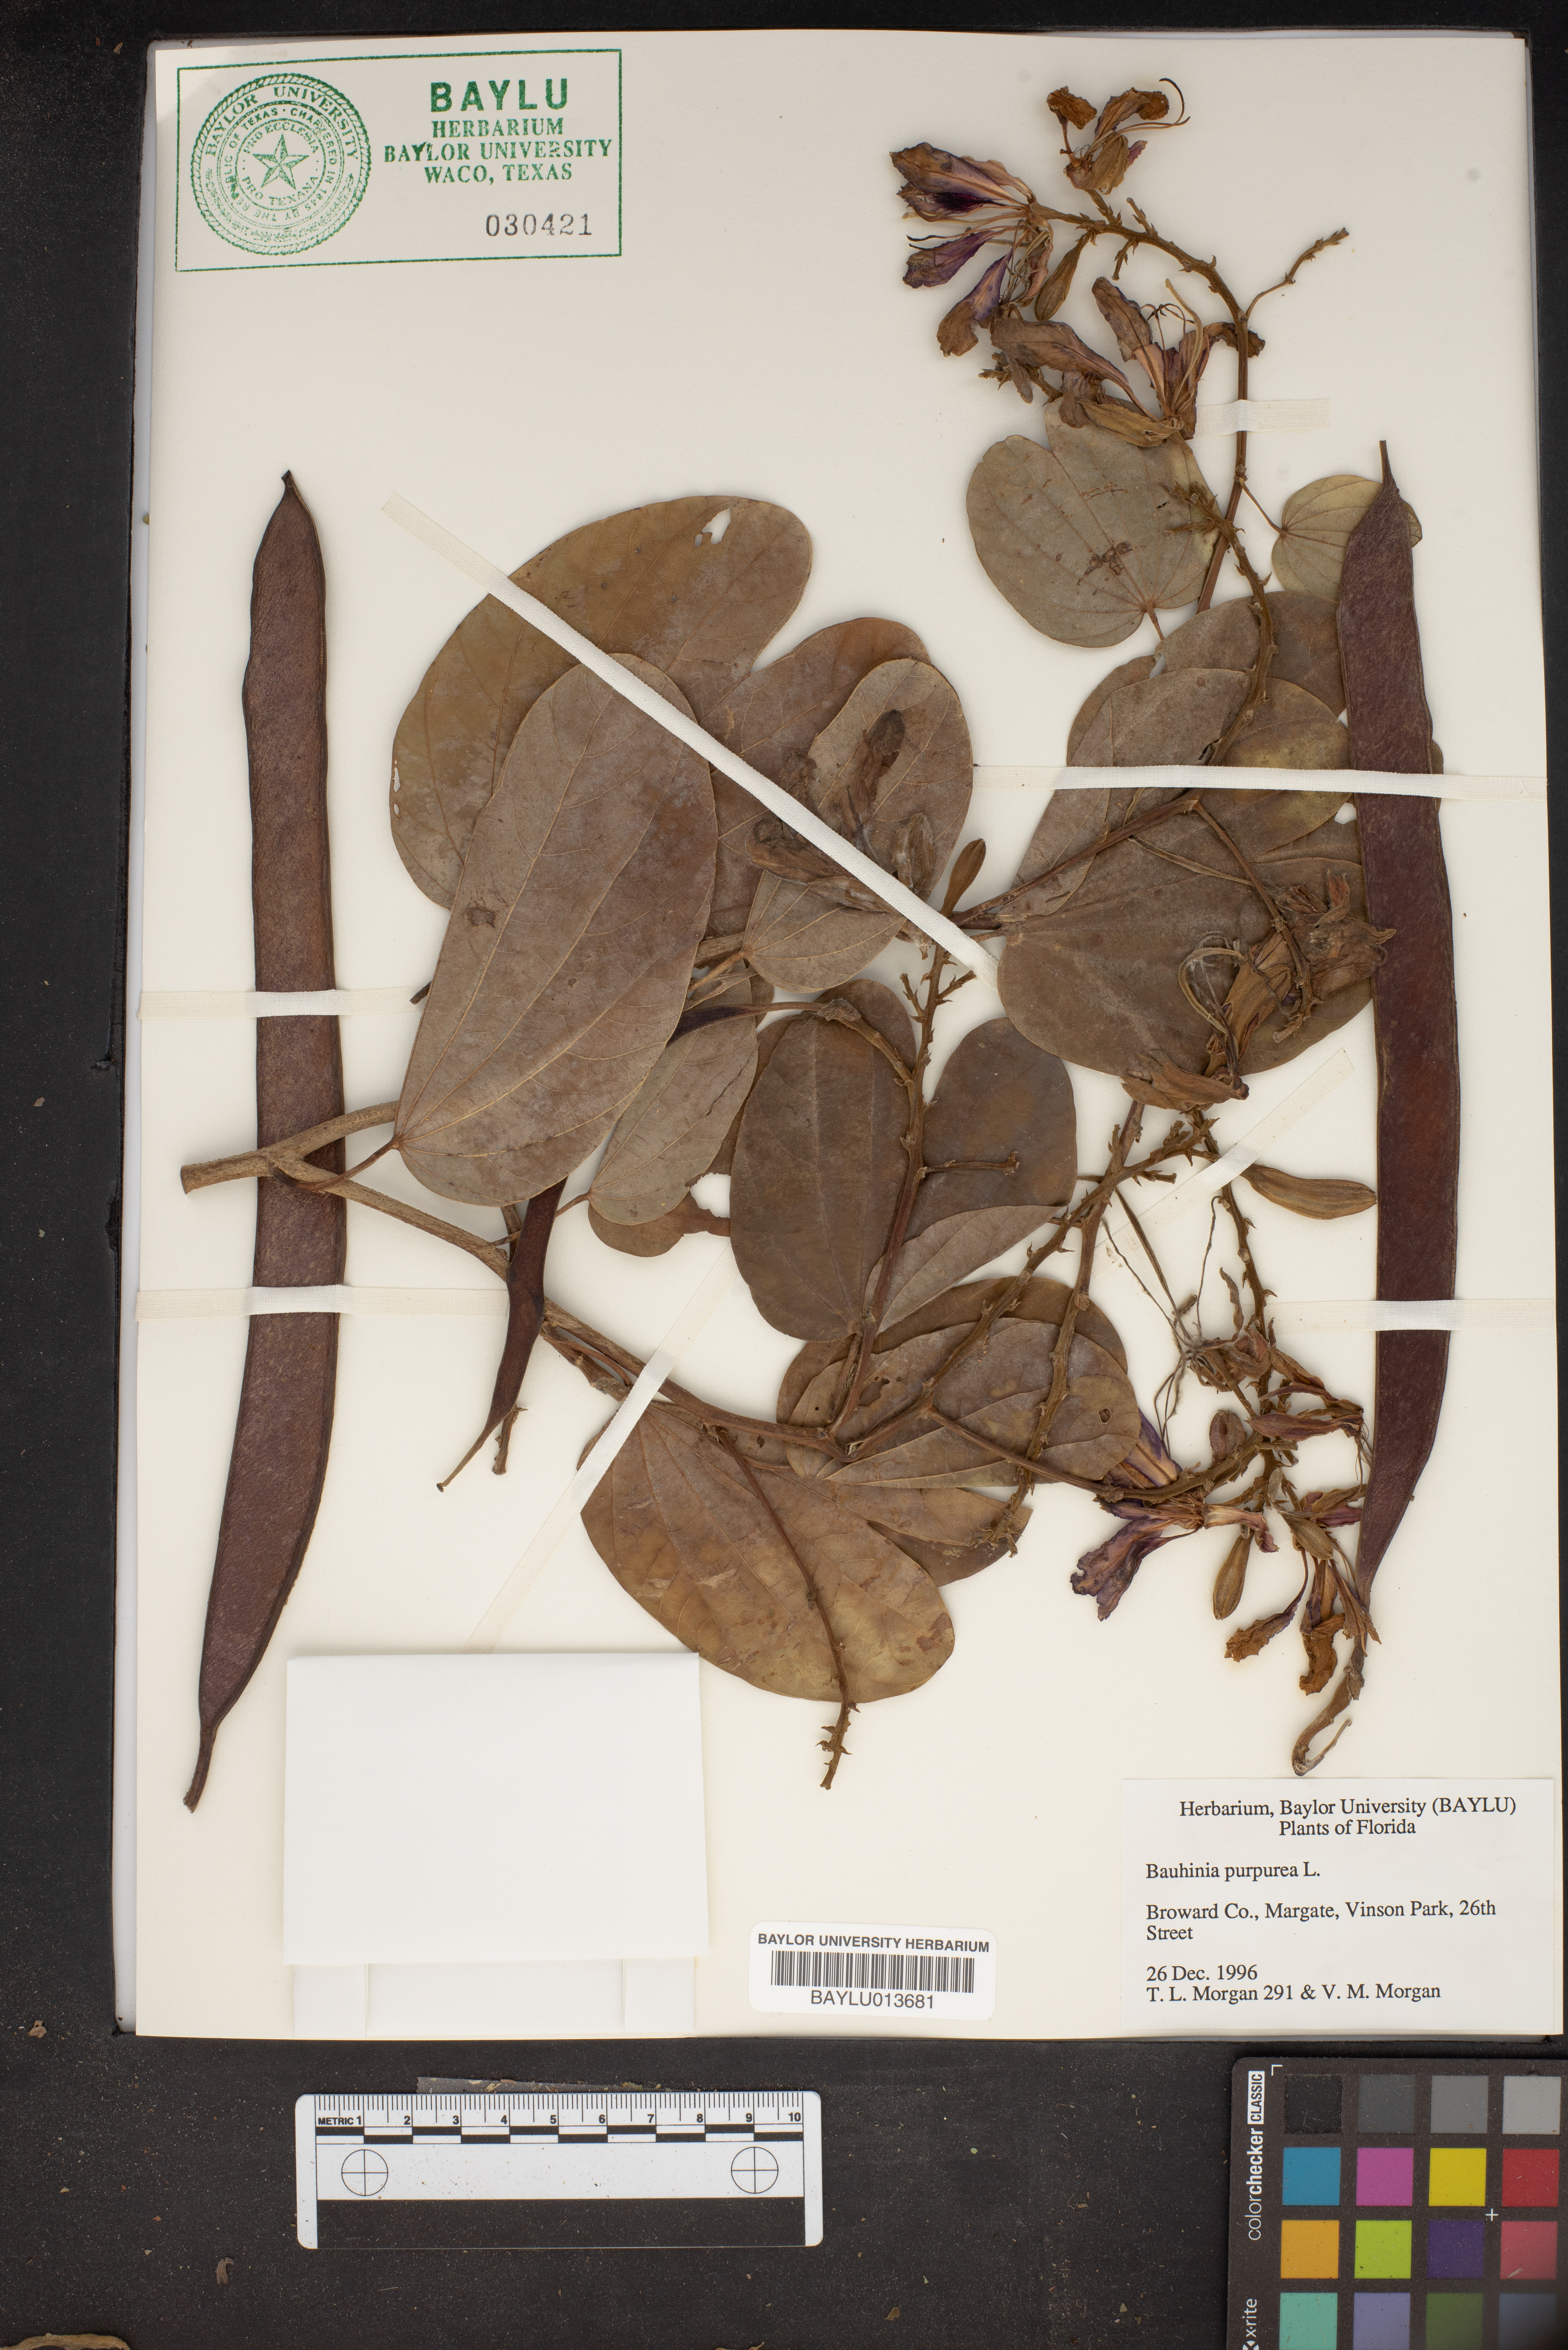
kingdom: Plantae
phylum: Tracheophyta
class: Magnoliopsida
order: Fabales
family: Fabaceae
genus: Bauhinia
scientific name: Bauhinia purpurea
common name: Butterfly-tree
